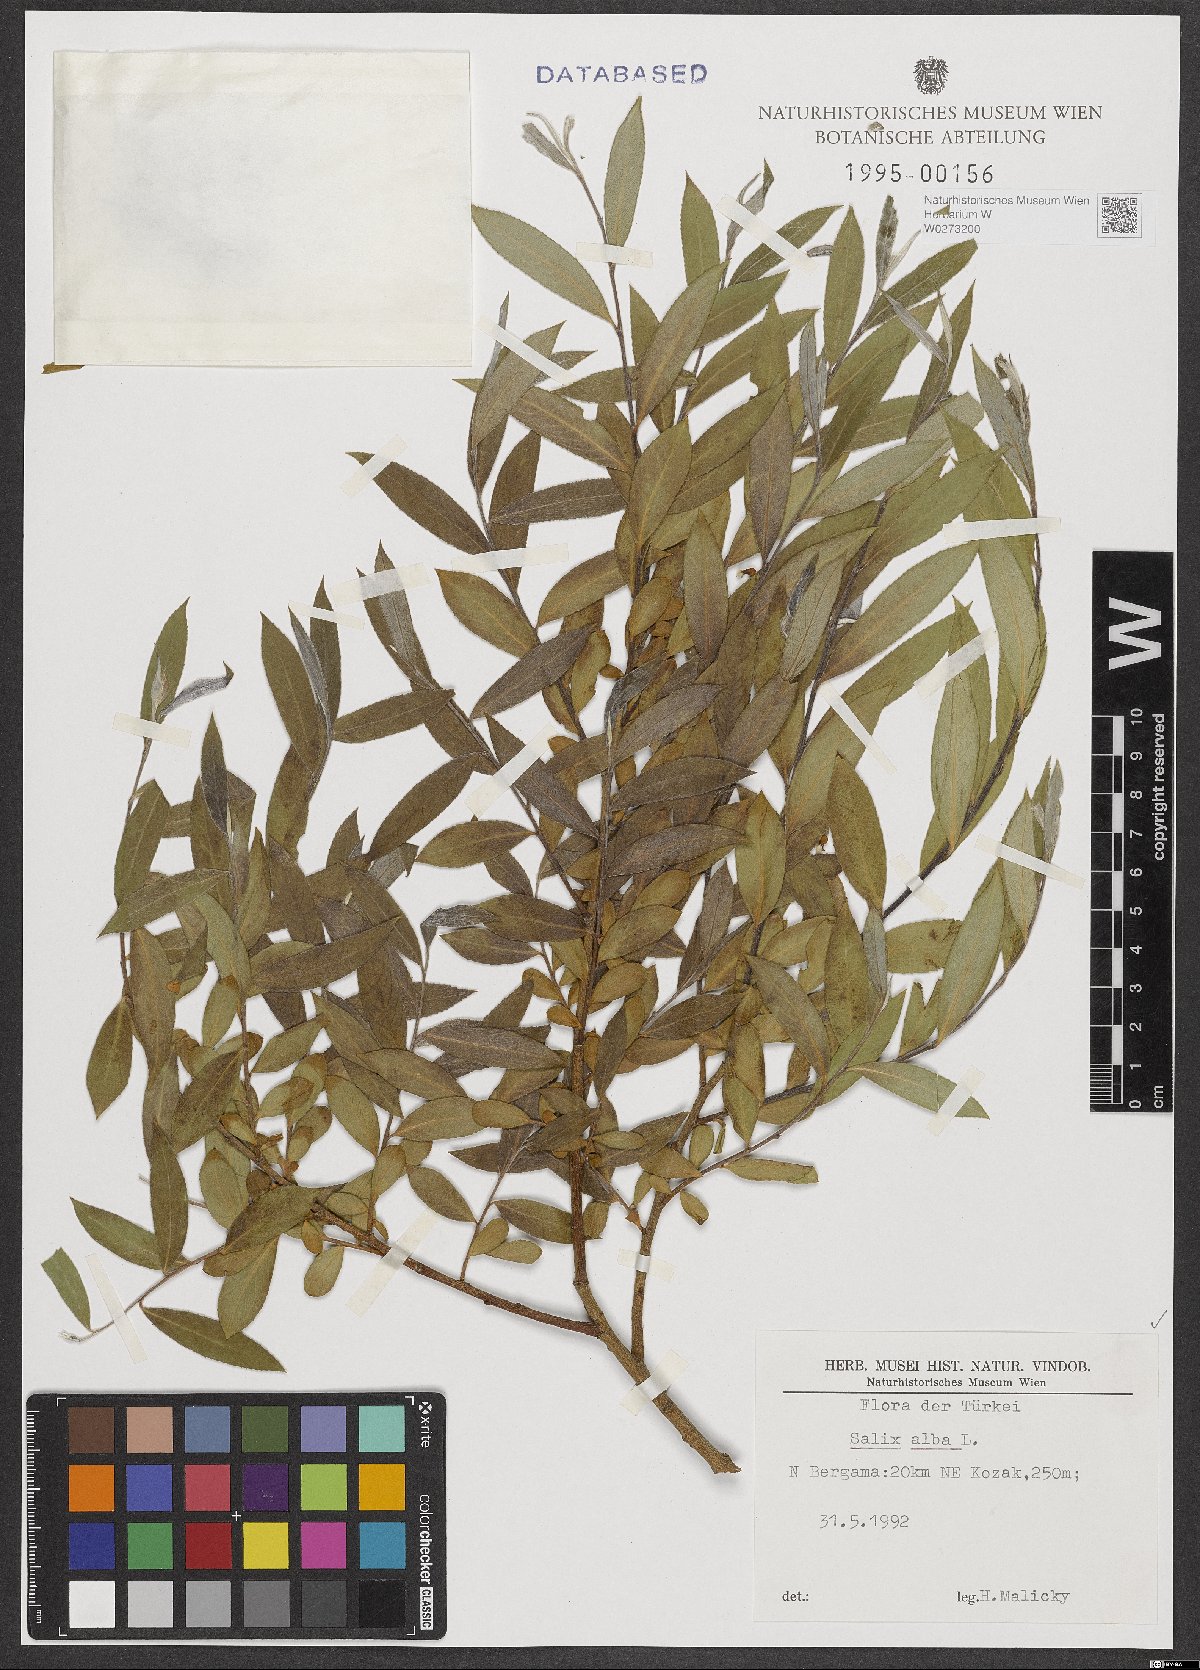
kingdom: Plantae
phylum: Tracheophyta
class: Magnoliopsida
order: Malpighiales
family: Salicaceae
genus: Salix
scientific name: Salix alba
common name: White willow
